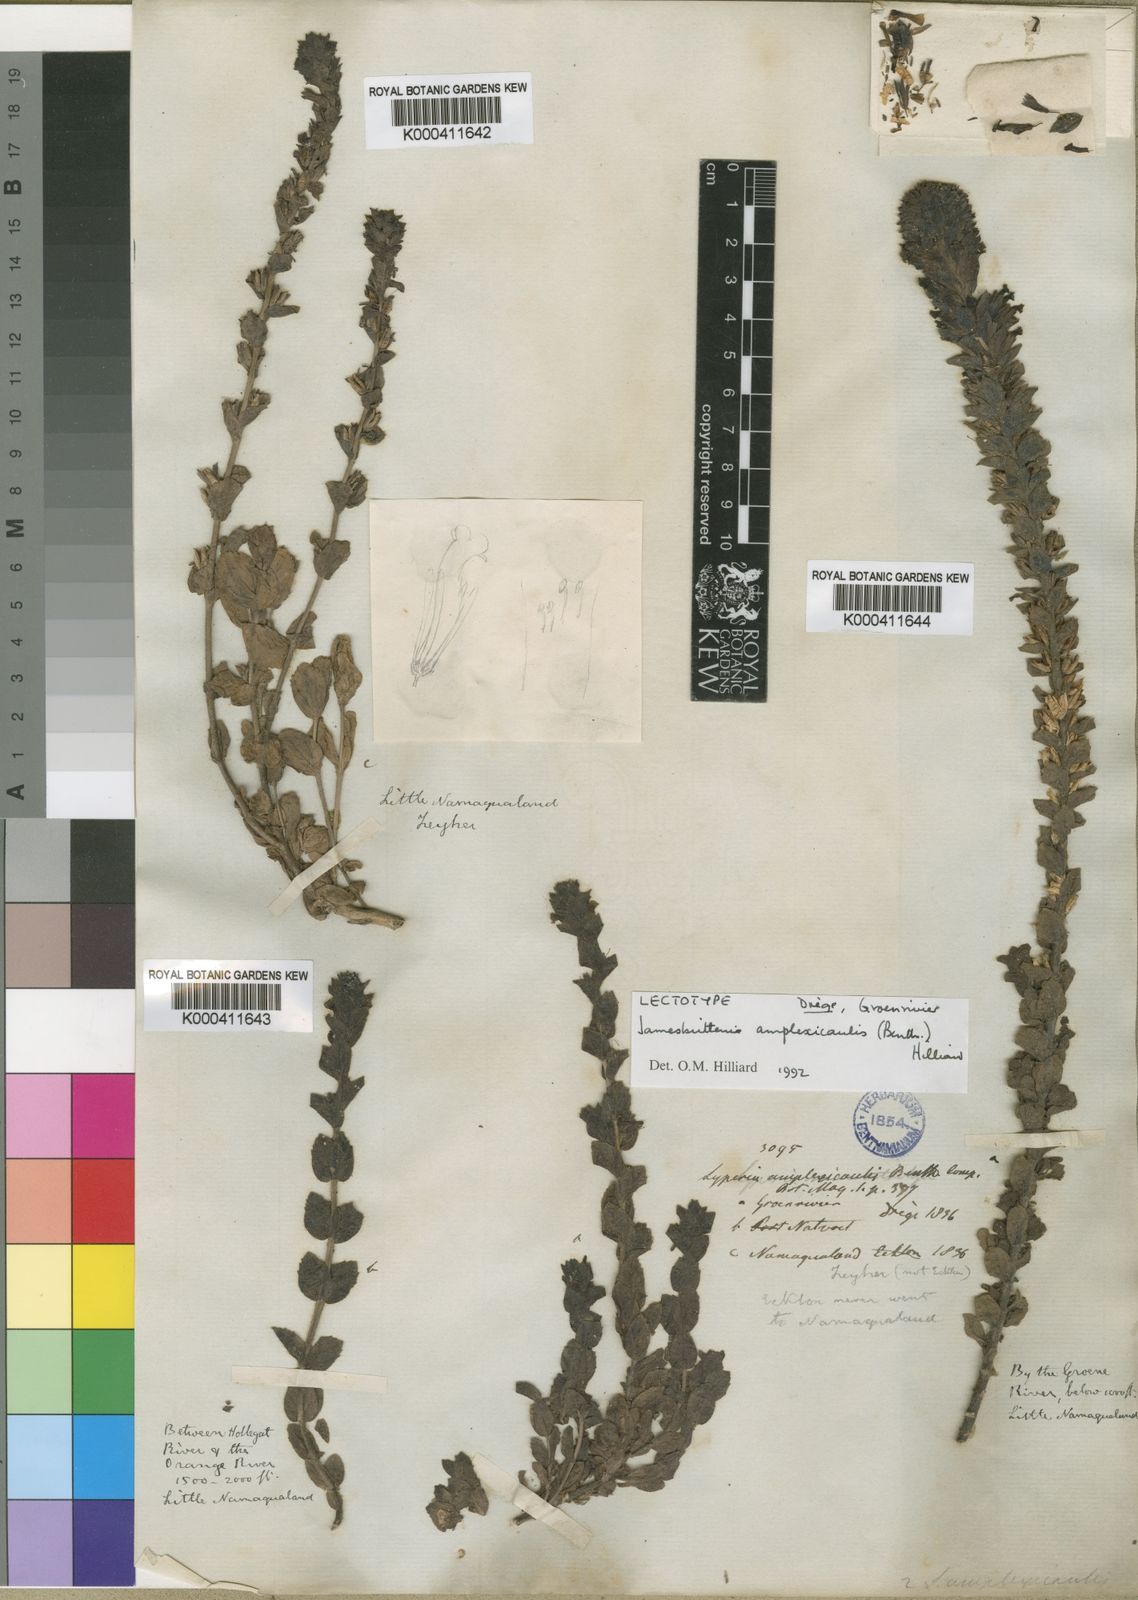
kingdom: Plantae
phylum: Tracheophyta
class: Magnoliopsida
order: Lamiales
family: Scrophulariaceae
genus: Jamesbrittenia
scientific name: Jamesbrittenia amplexicaulis
